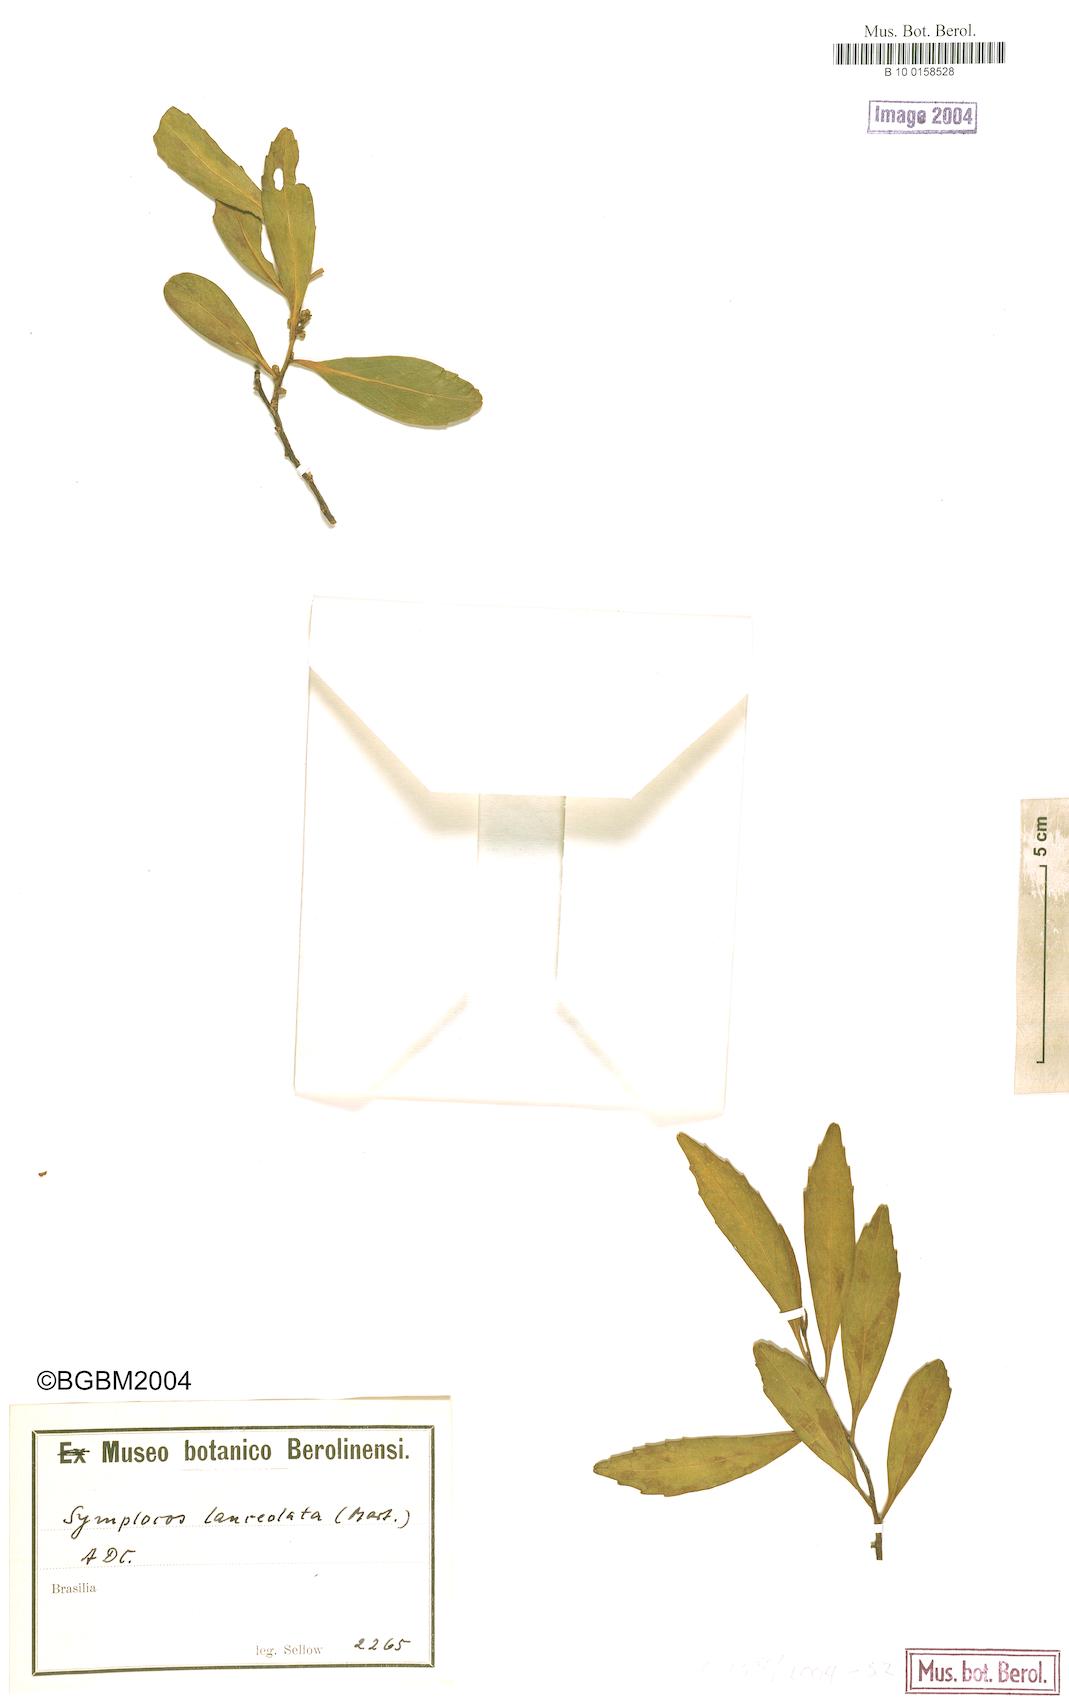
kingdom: Plantae
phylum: Tracheophyta
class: Magnoliopsida
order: Ericales
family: Symplocaceae
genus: Symplocos
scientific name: Symplocos oblongifolia
